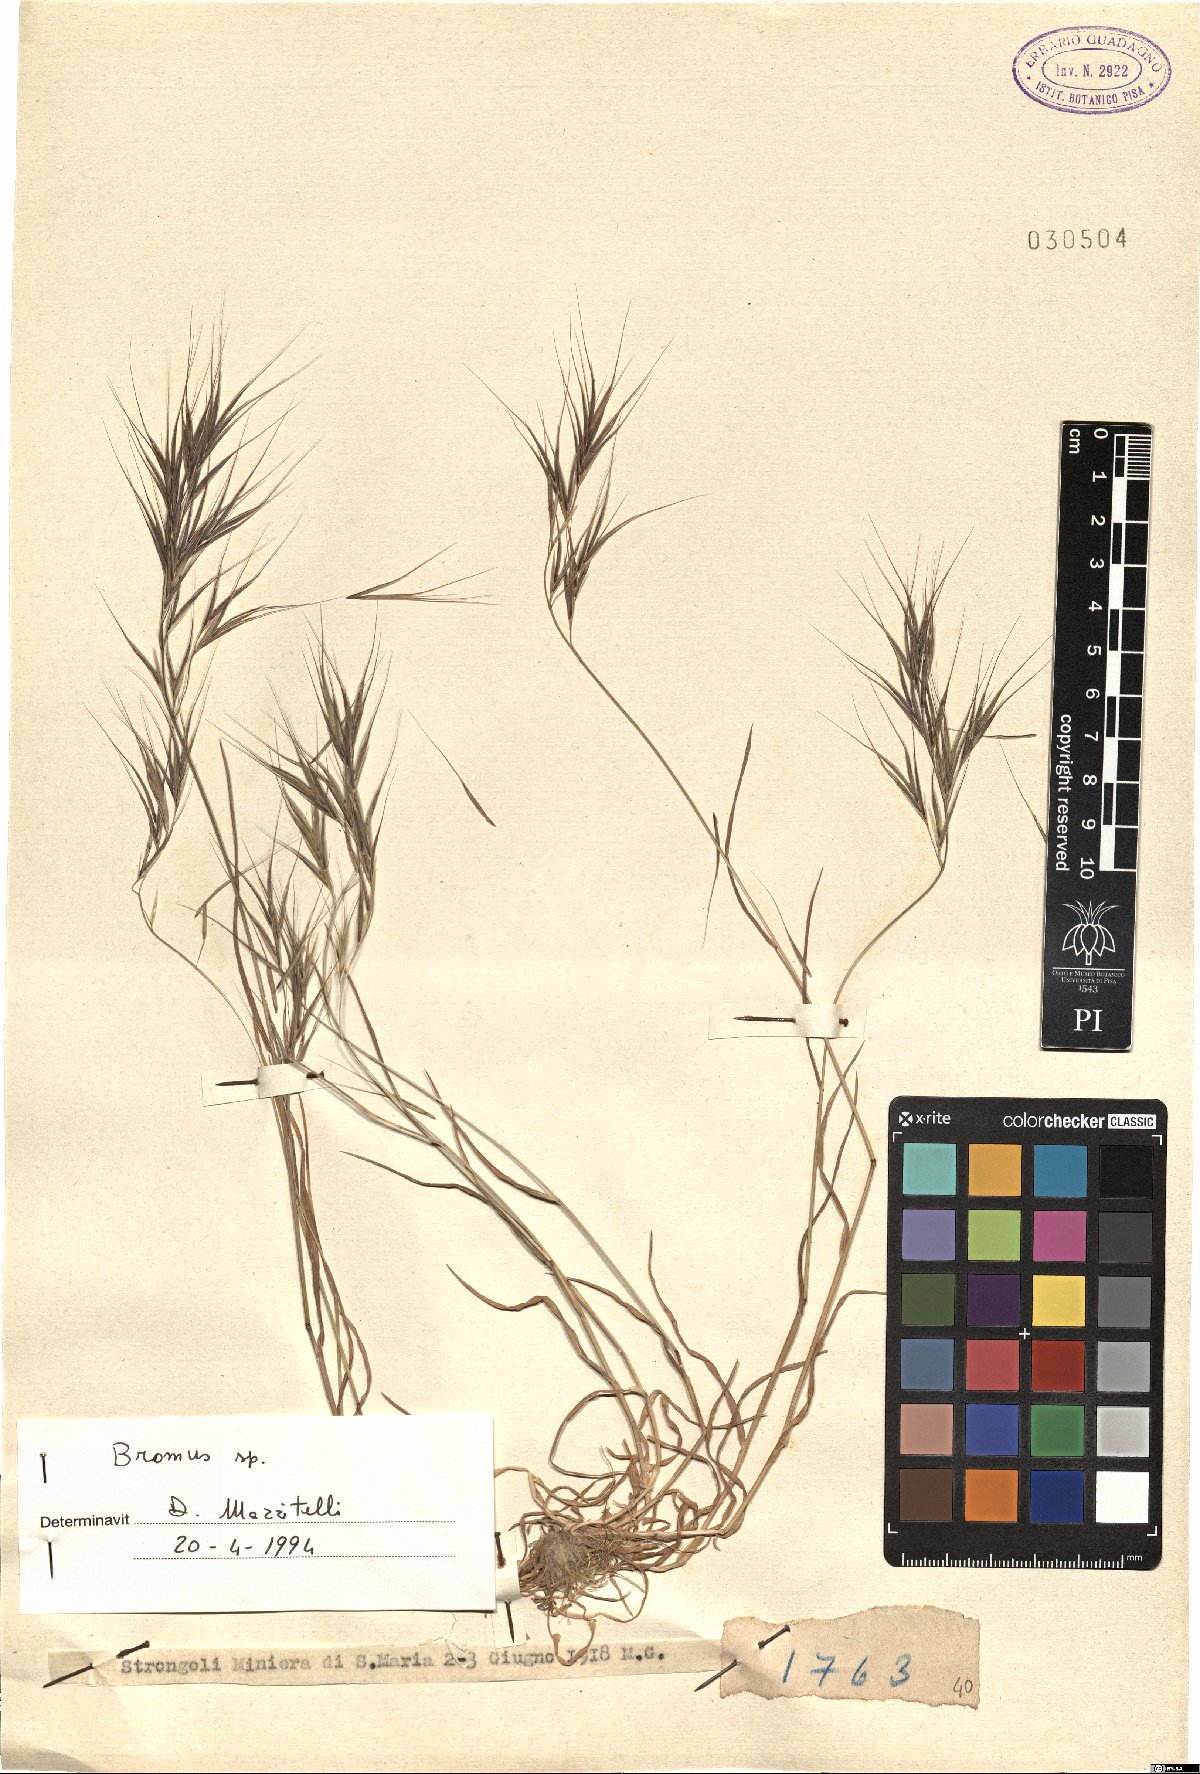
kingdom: Plantae
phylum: Tracheophyta
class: Liliopsida
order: Poales
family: Poaceae
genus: Bromus
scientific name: Bromus
